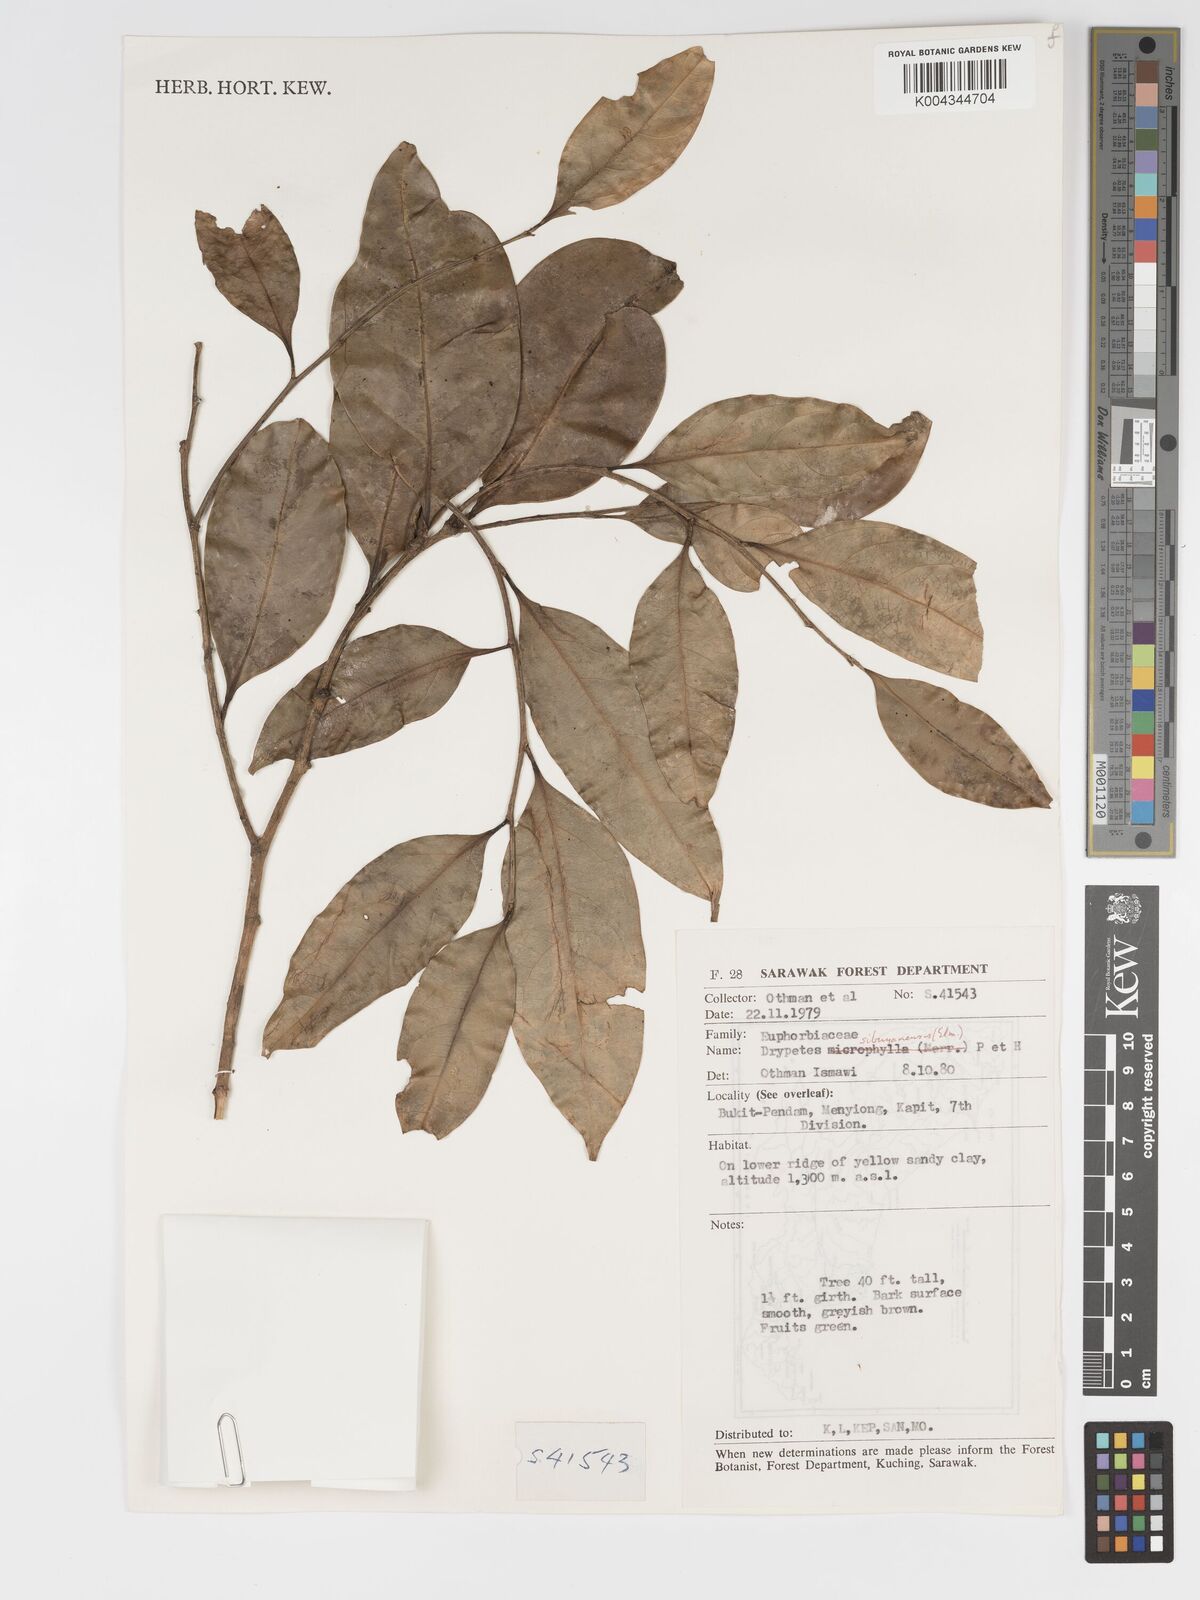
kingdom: Plantae
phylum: Tracheophyta
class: Magnoliopsida
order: Malpighiales
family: Putranjivaceae
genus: Drypetes
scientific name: Drypetes sibuyanensis
